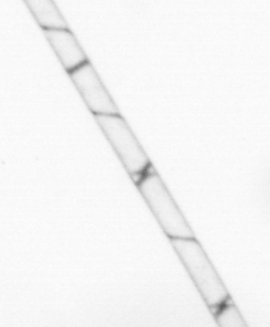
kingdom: Chromista
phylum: Ochrophyta
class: Bacillariophyceae
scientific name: Bacillariophyceae
